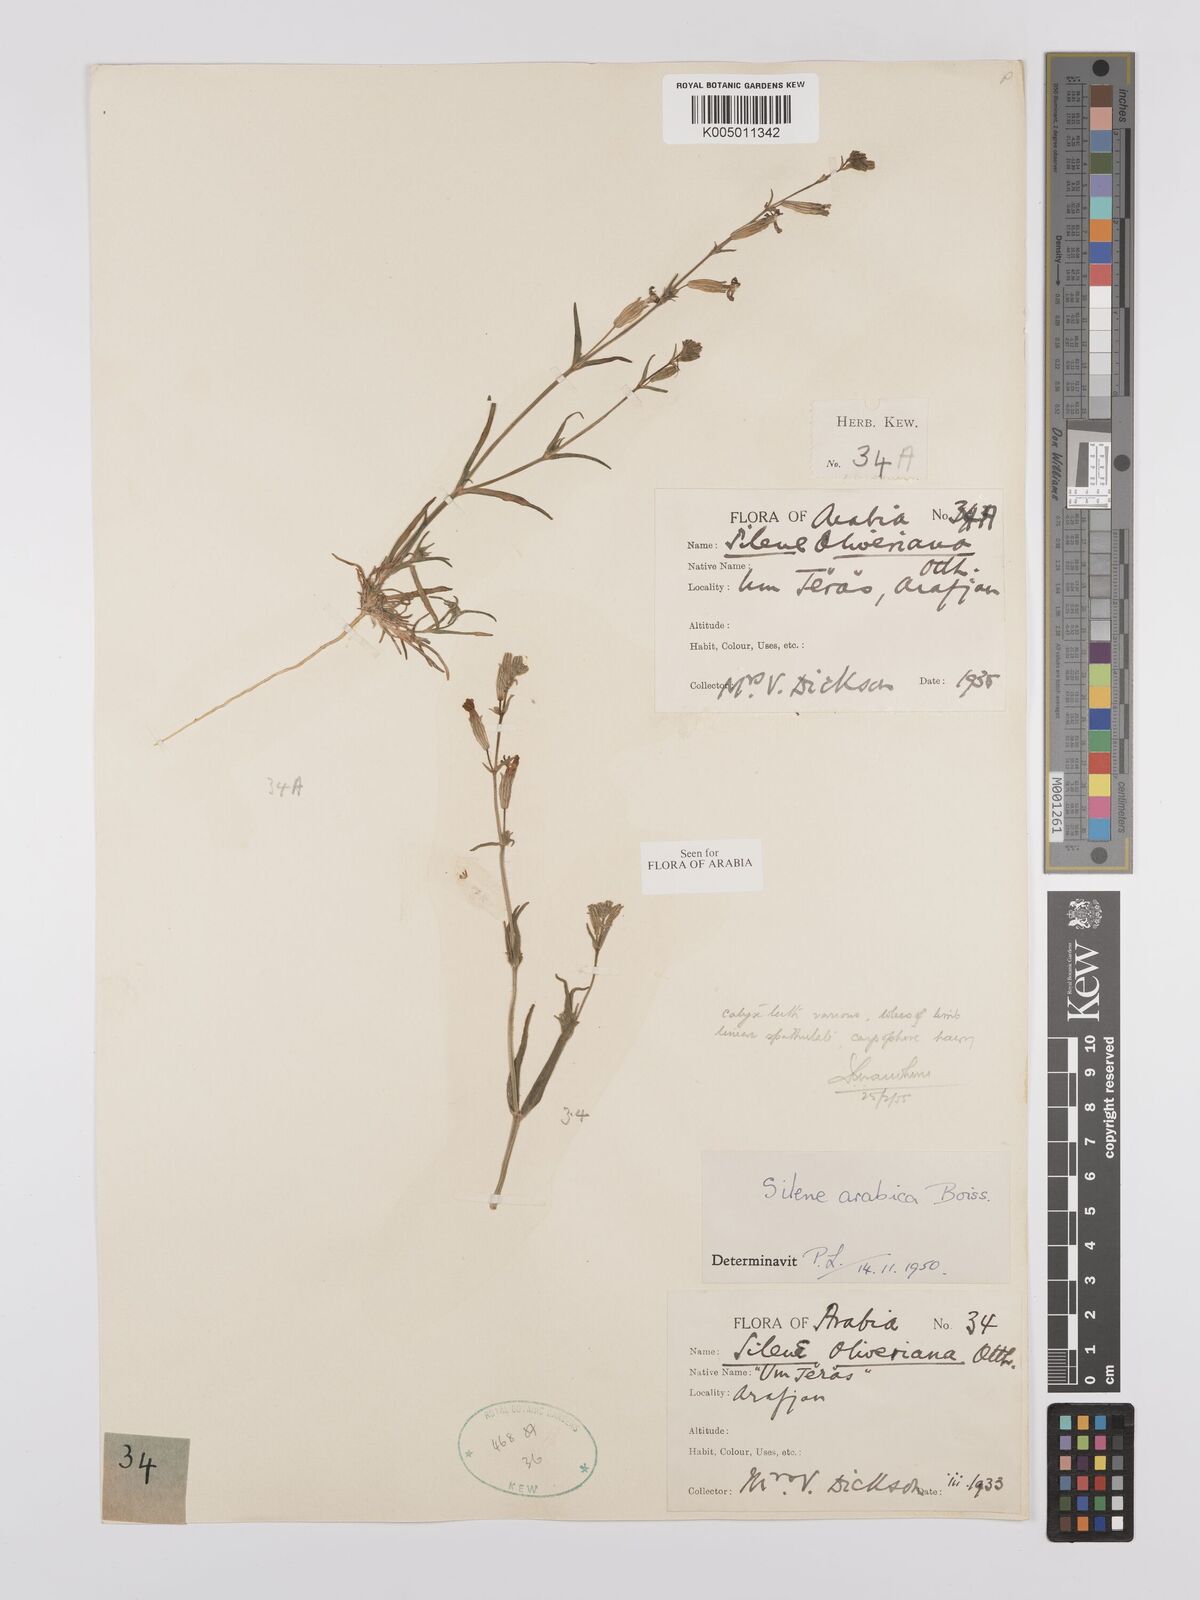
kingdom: Plantae
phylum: Tracheophyta
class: Magnoliopsida
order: Caryophyllales
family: Caryophyllaceae
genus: Silene
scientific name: Silene arabica
